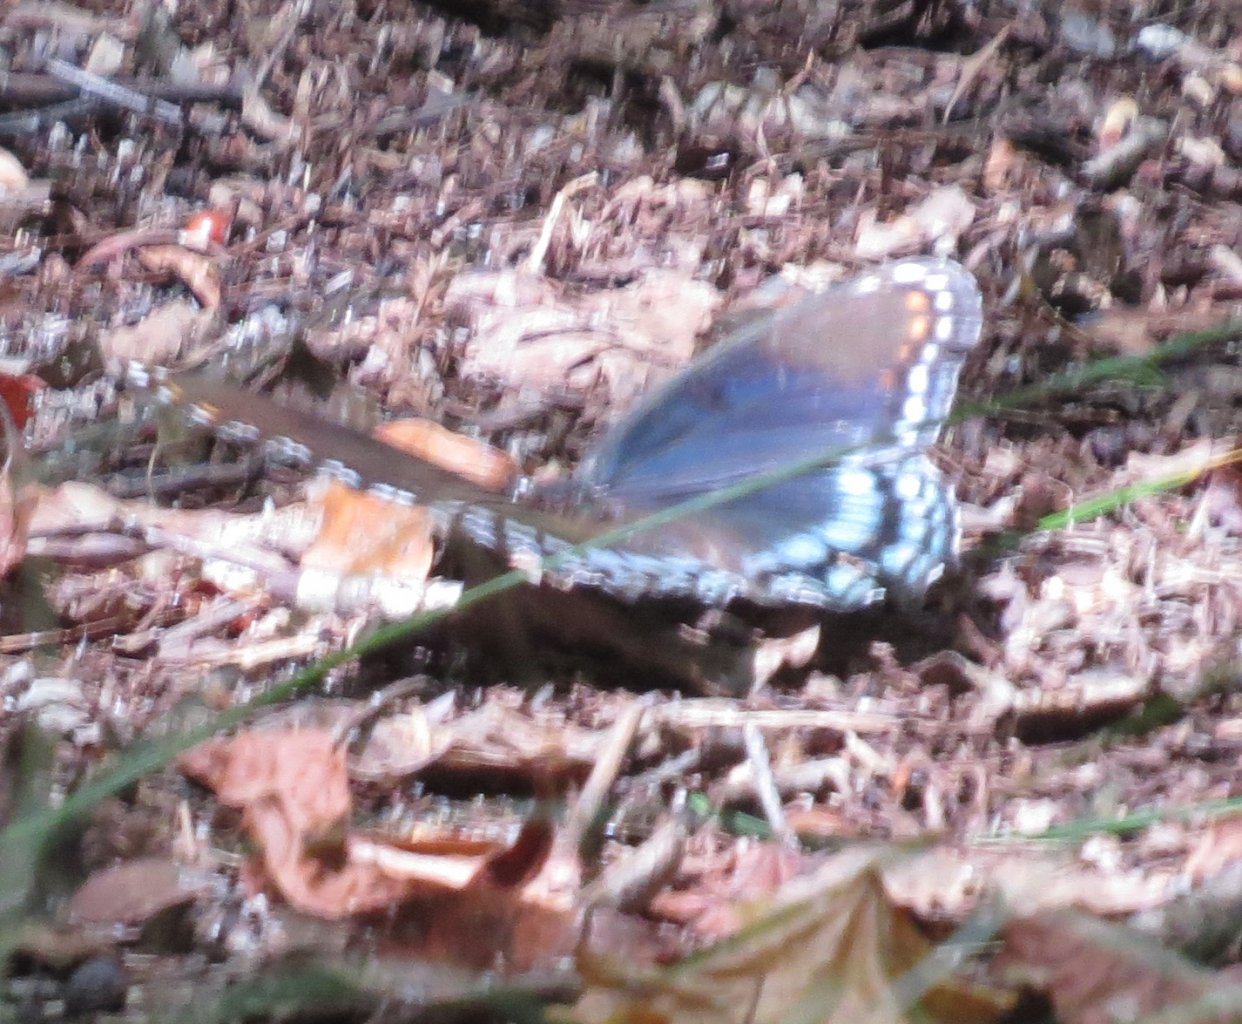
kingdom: Animalia
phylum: Arthropoda
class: Insecta
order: Lepidoptera
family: Nymphalidae
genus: Limenitis
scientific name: Limenitis astyanax
